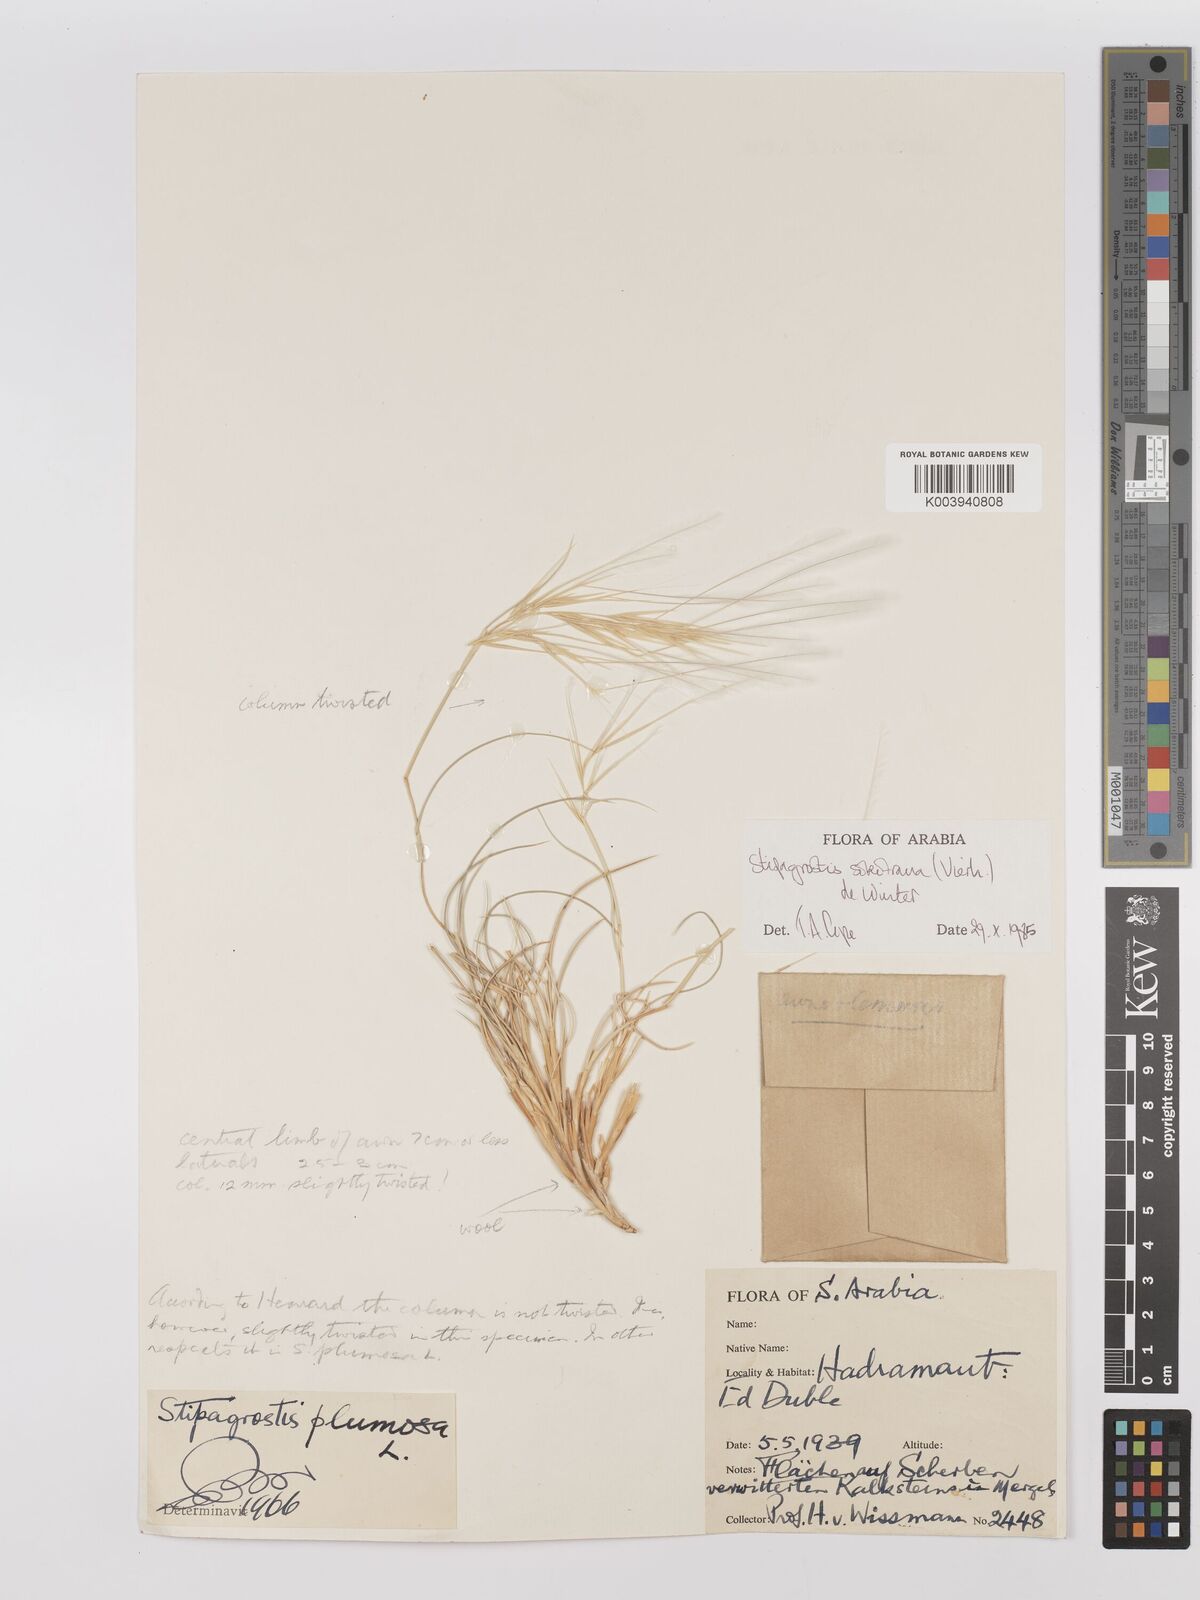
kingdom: Plantae
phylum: Tracheophyta
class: Liliopsida
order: Poales
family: Poaceae
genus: Stipagrostis
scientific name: Stipagrostis sokotrana
